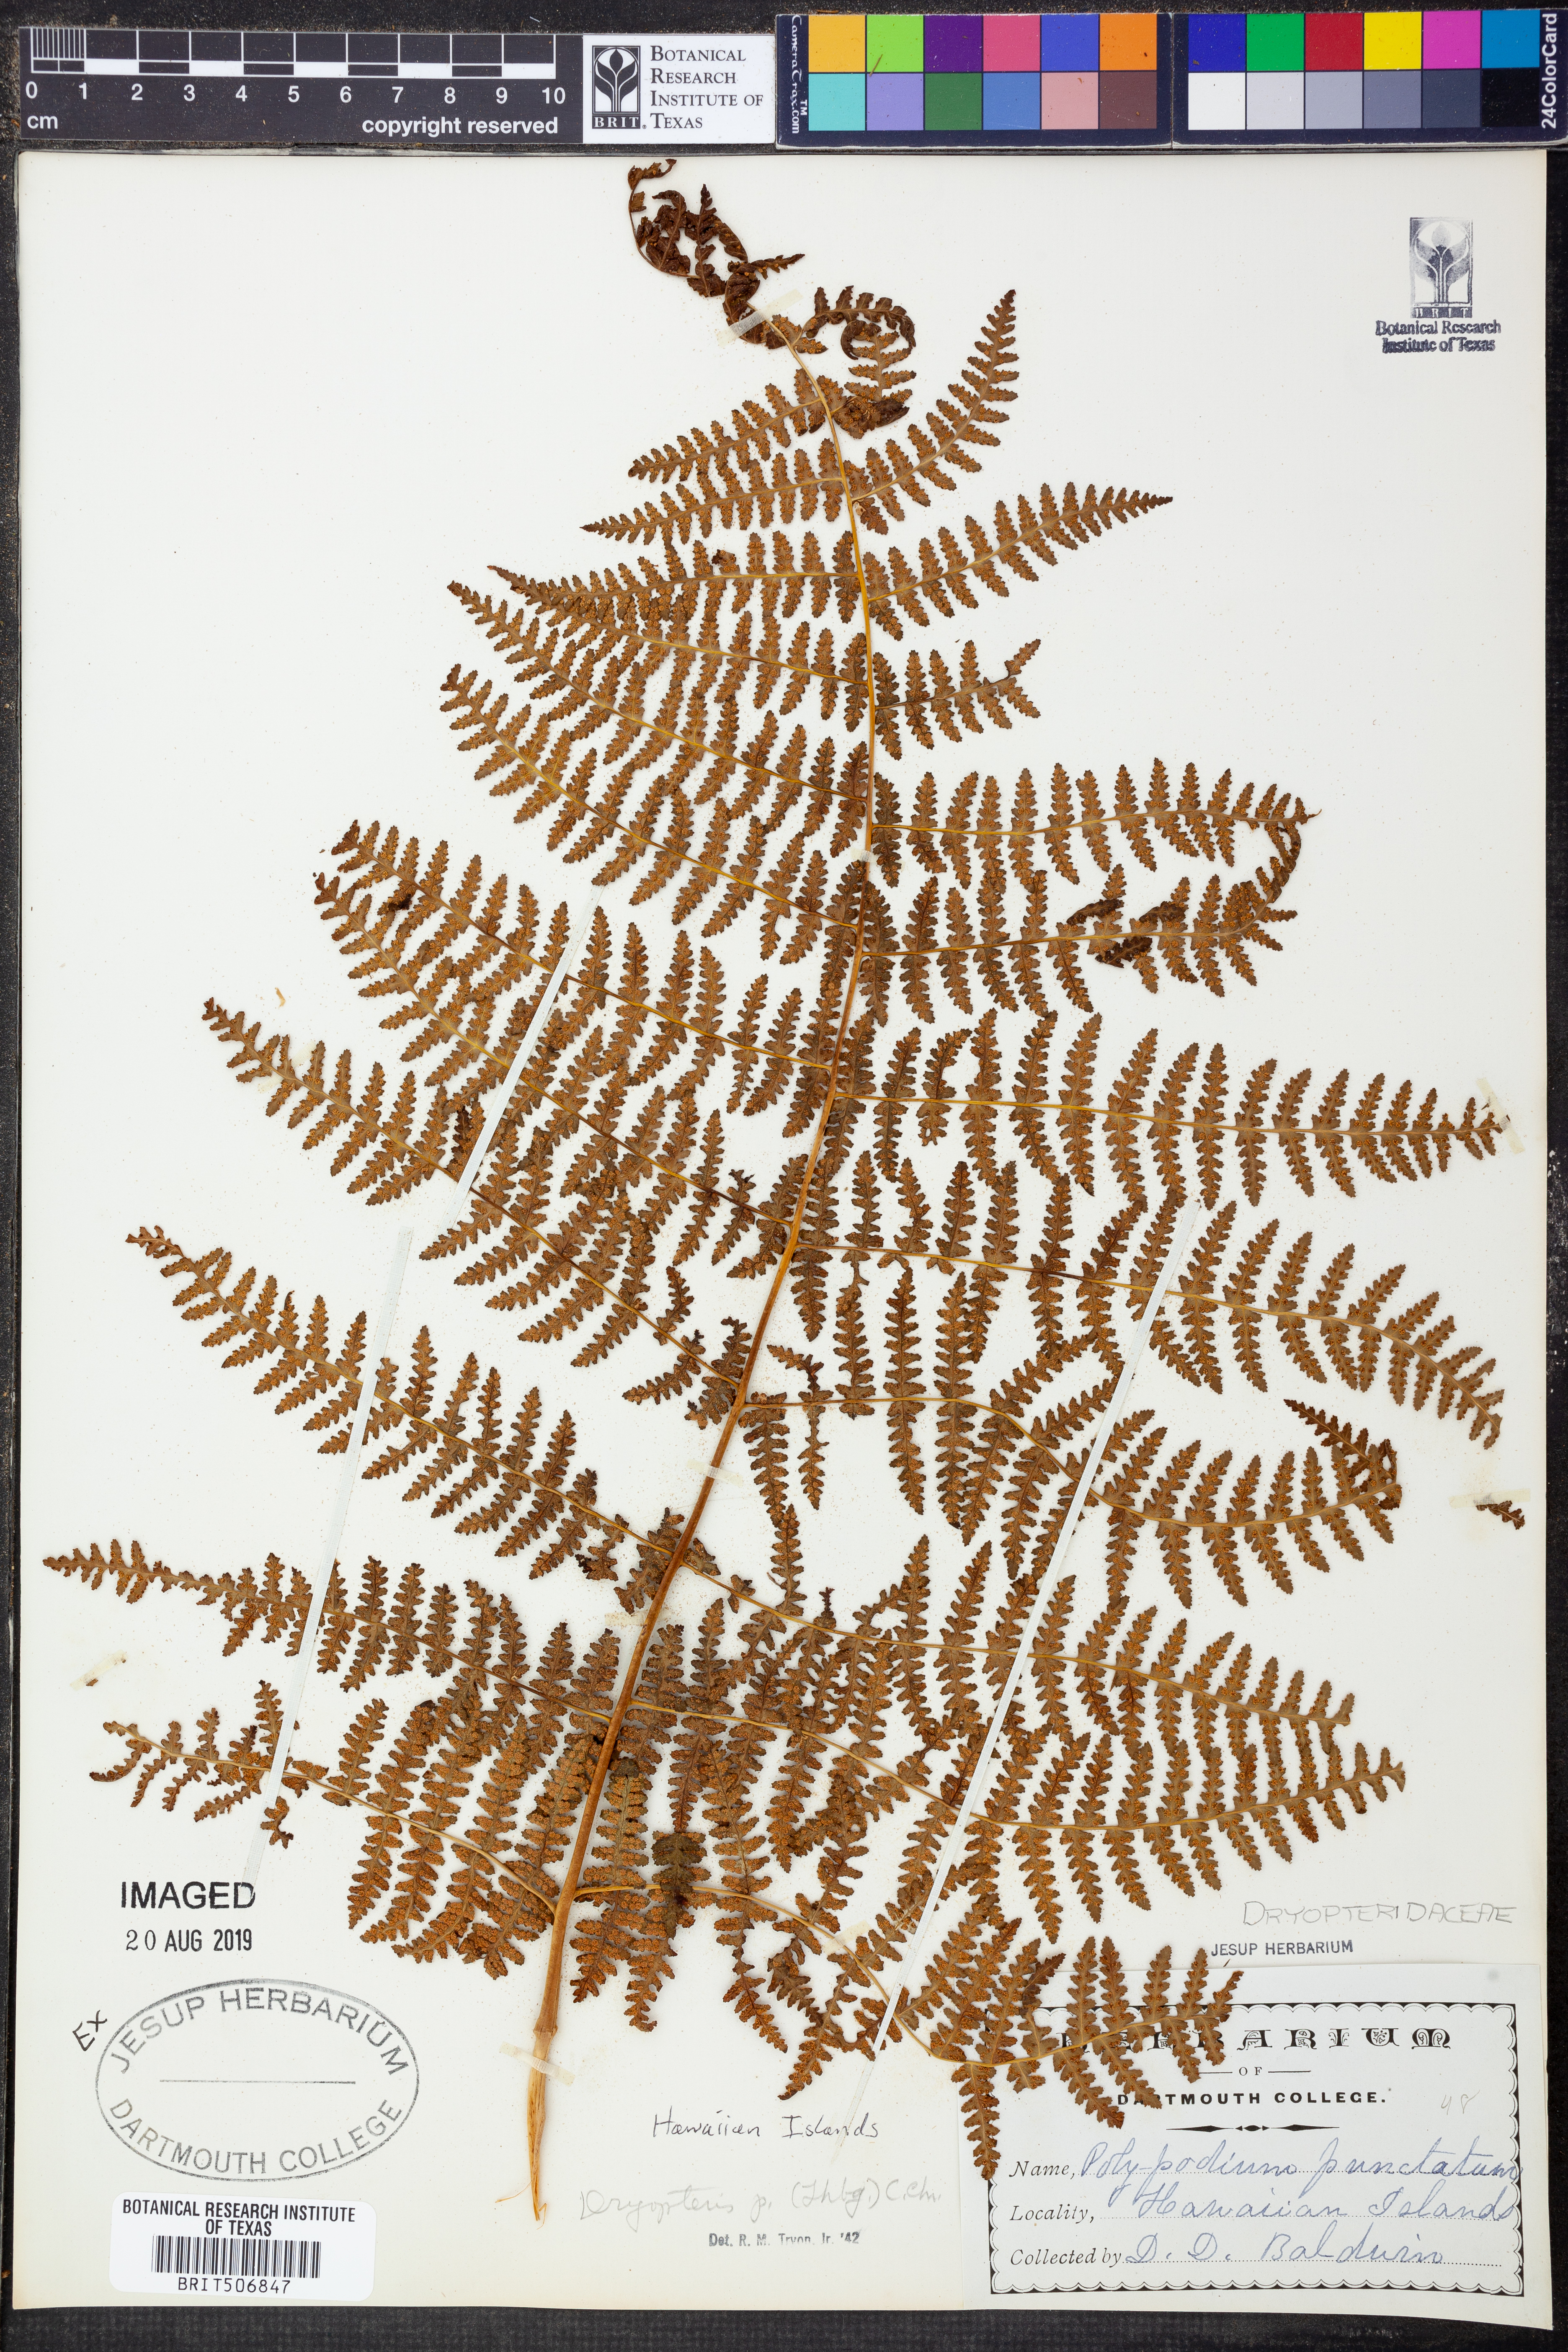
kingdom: Plantae
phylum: Tracheophyta
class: Polypodiopsida
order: Polypodiales
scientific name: Polypodiales
